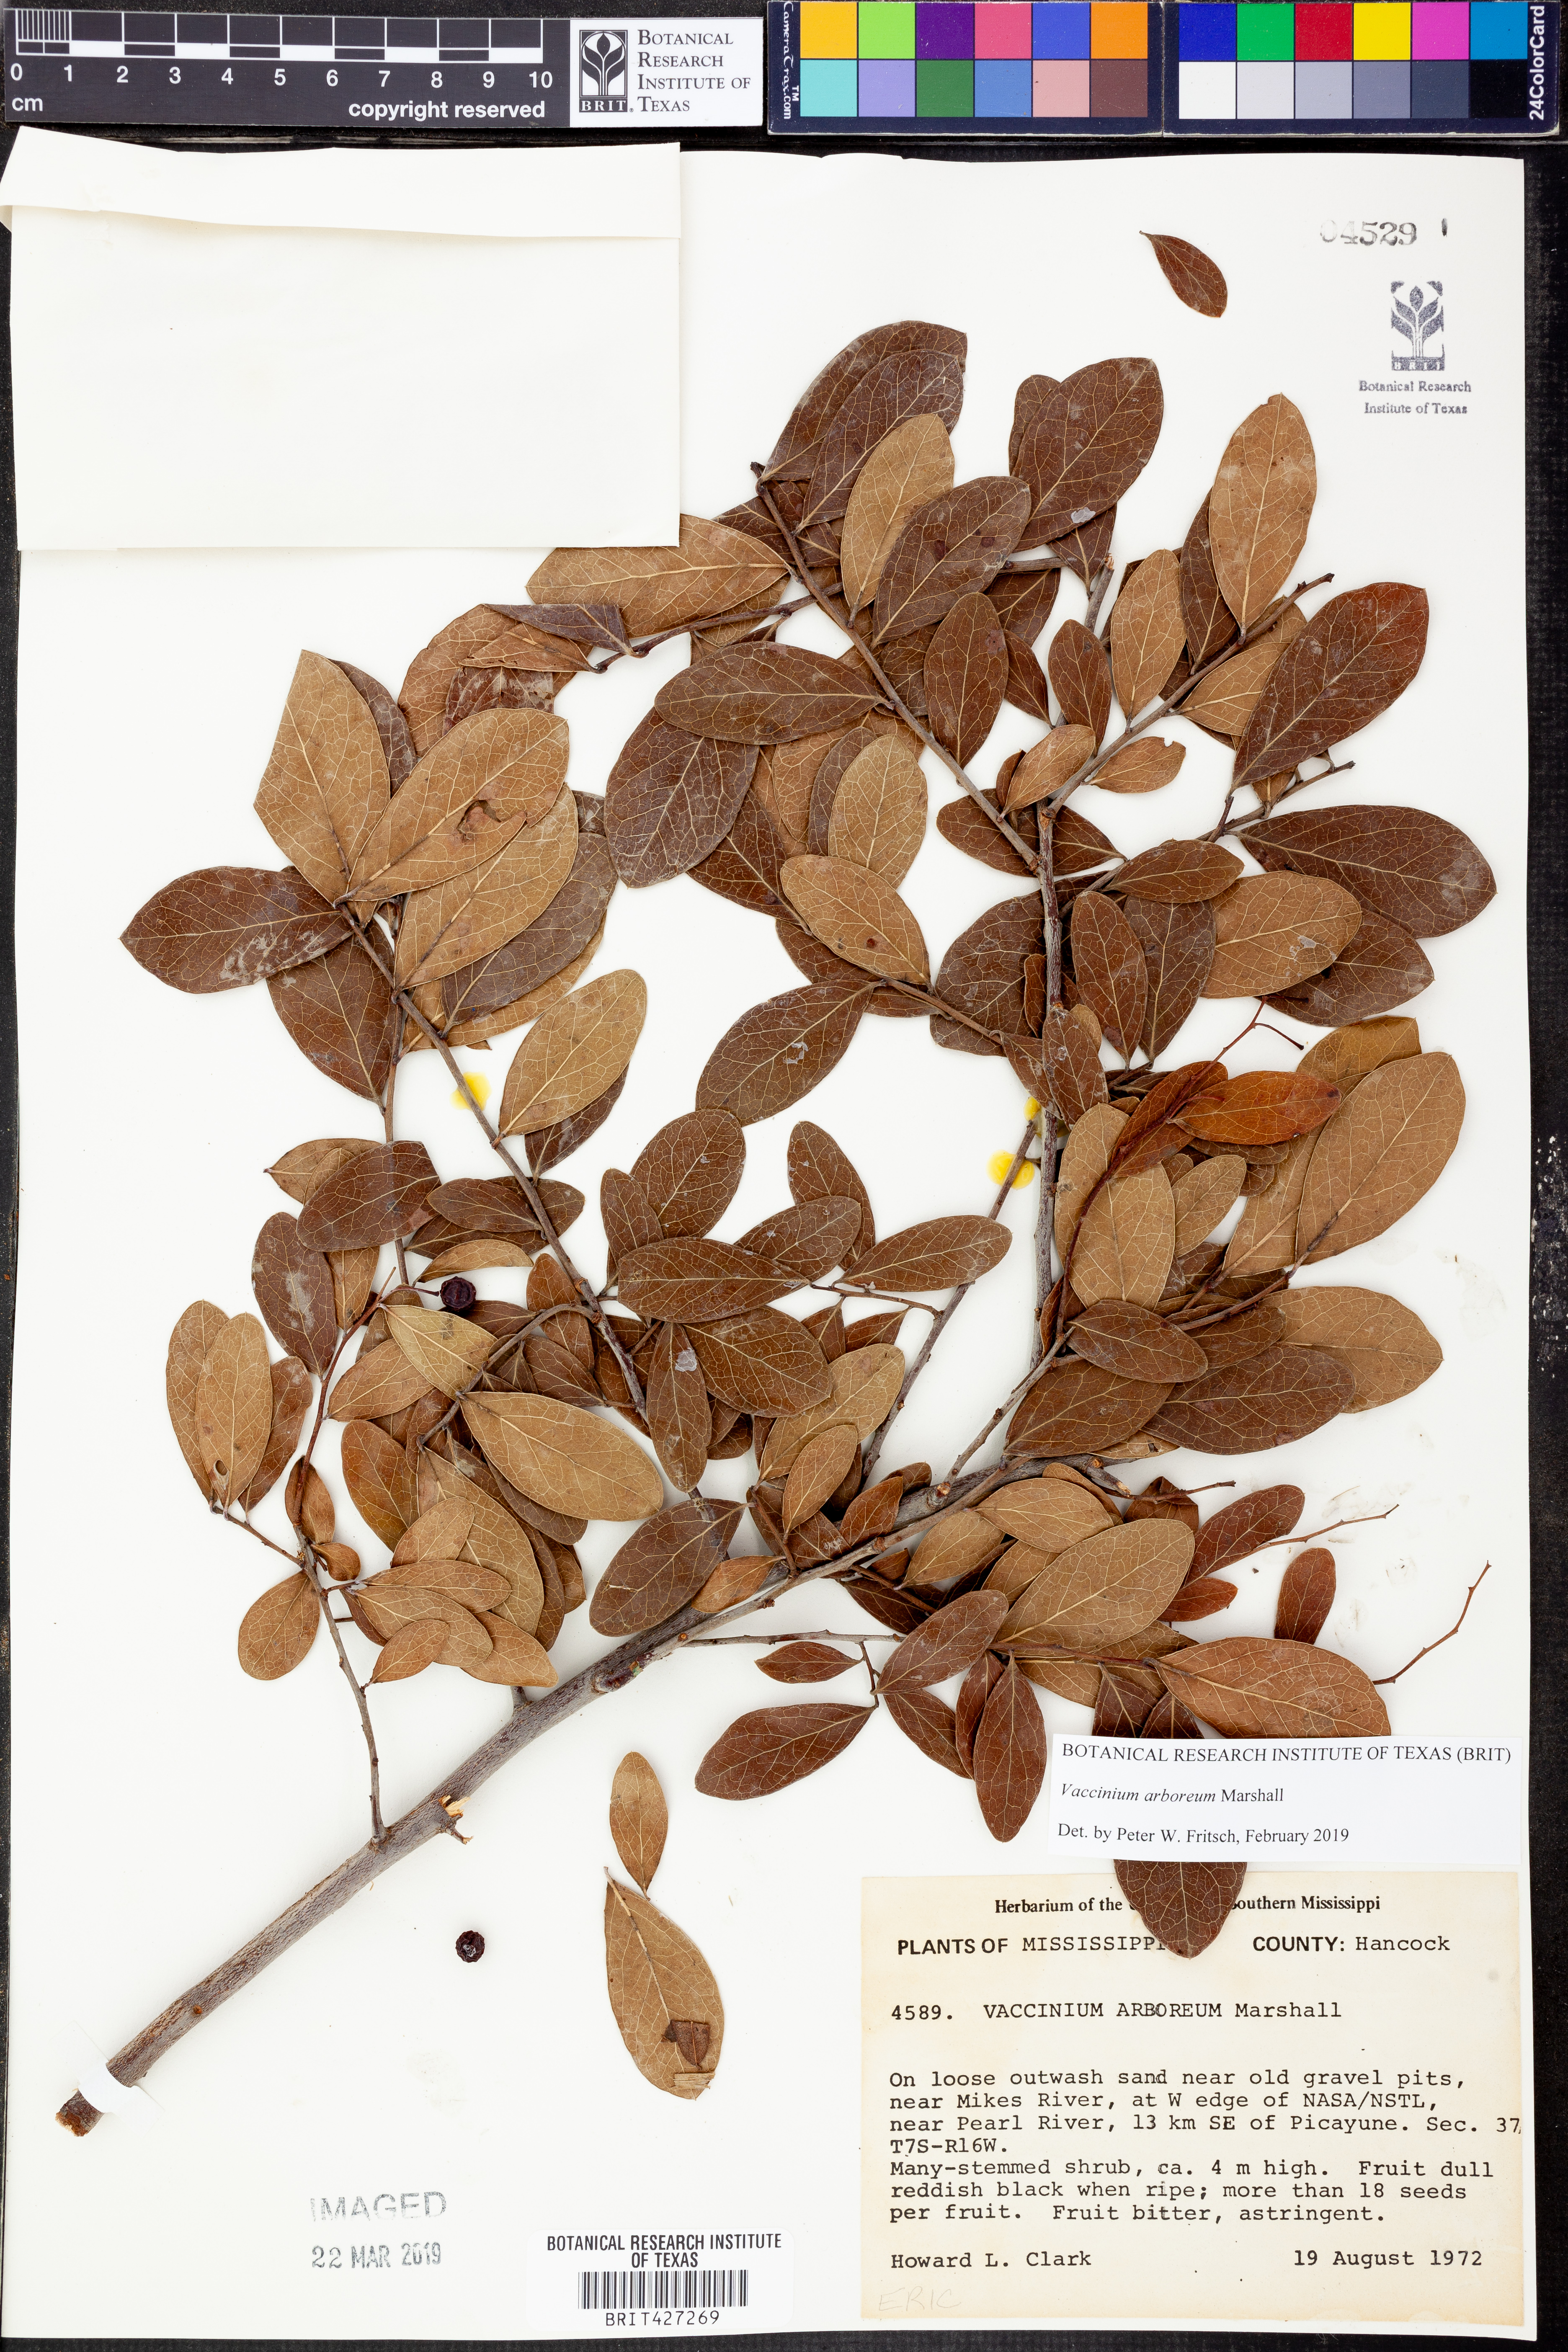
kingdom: Plantae
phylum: Tracheophyta
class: Magnoliopsida
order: Ericales
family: Ericaceae
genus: Vaccinium
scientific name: Vaccinium arboreum
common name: Farkleberry
